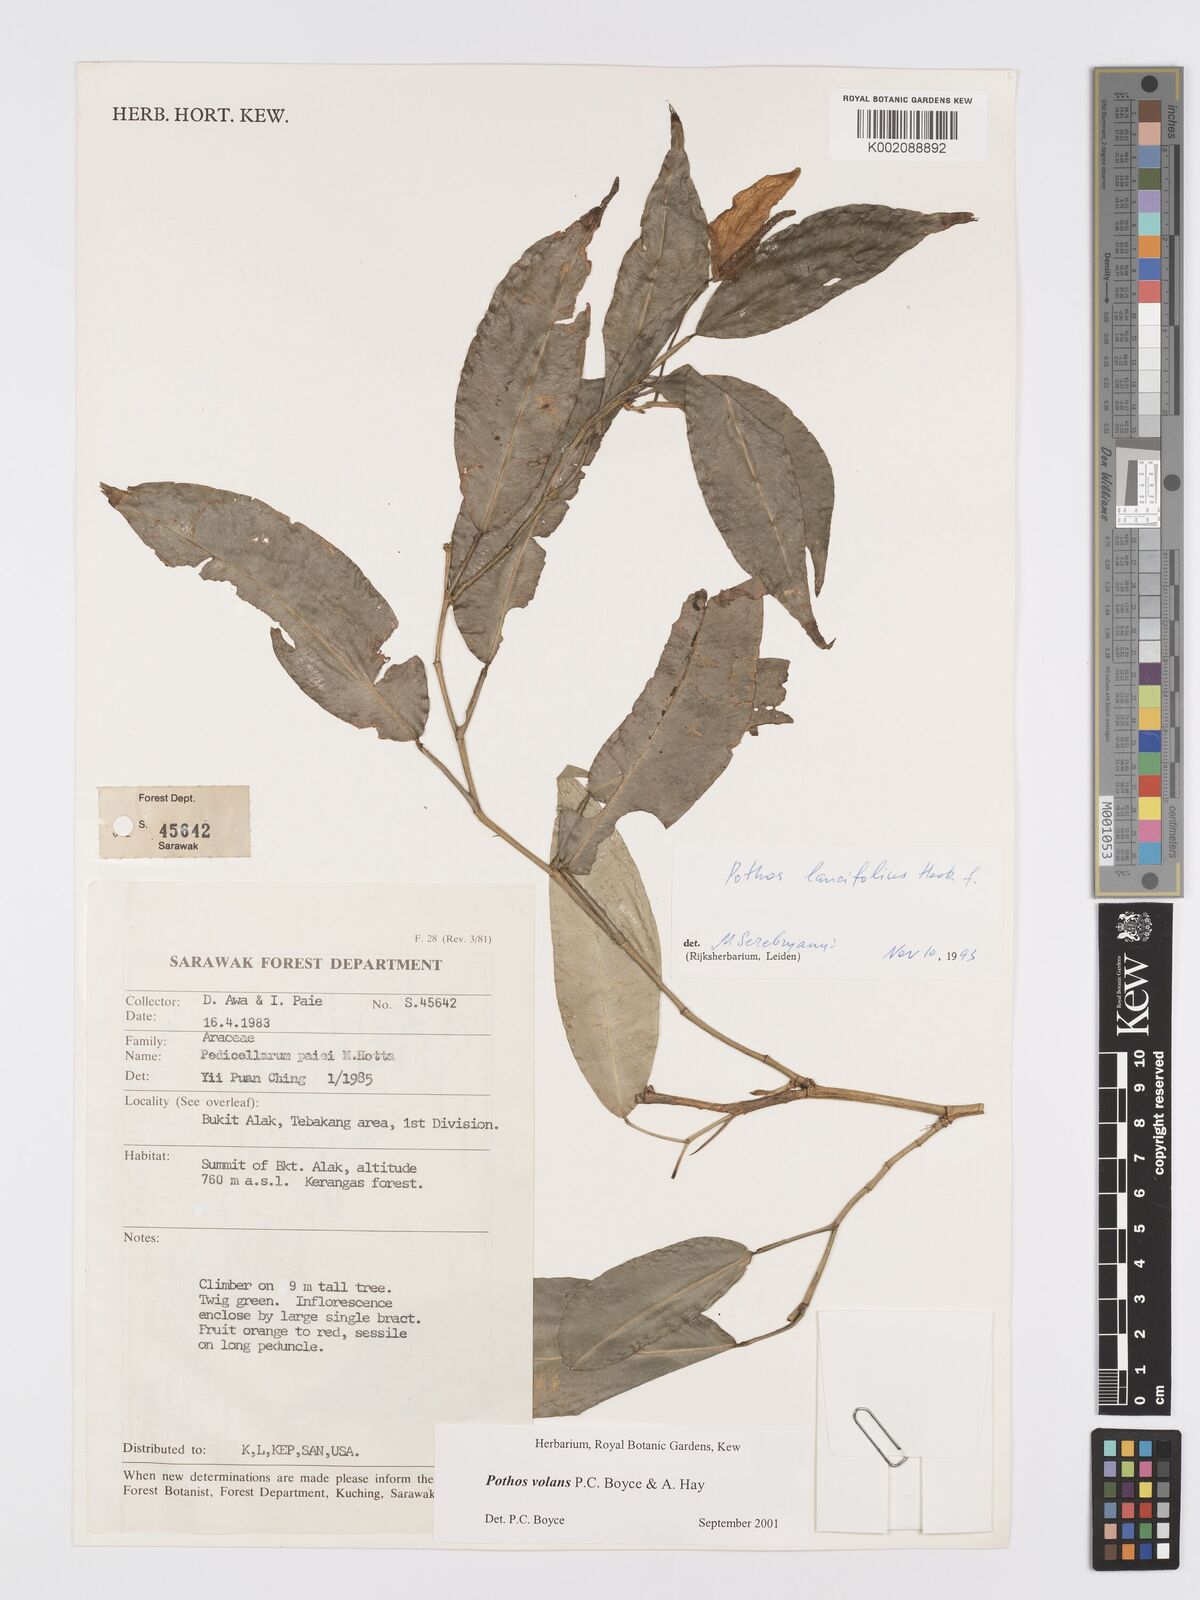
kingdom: Plantae
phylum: Tracheophyta
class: Liliopsida
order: Alismatales
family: Araceae
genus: Pothos
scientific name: Pothos volans
